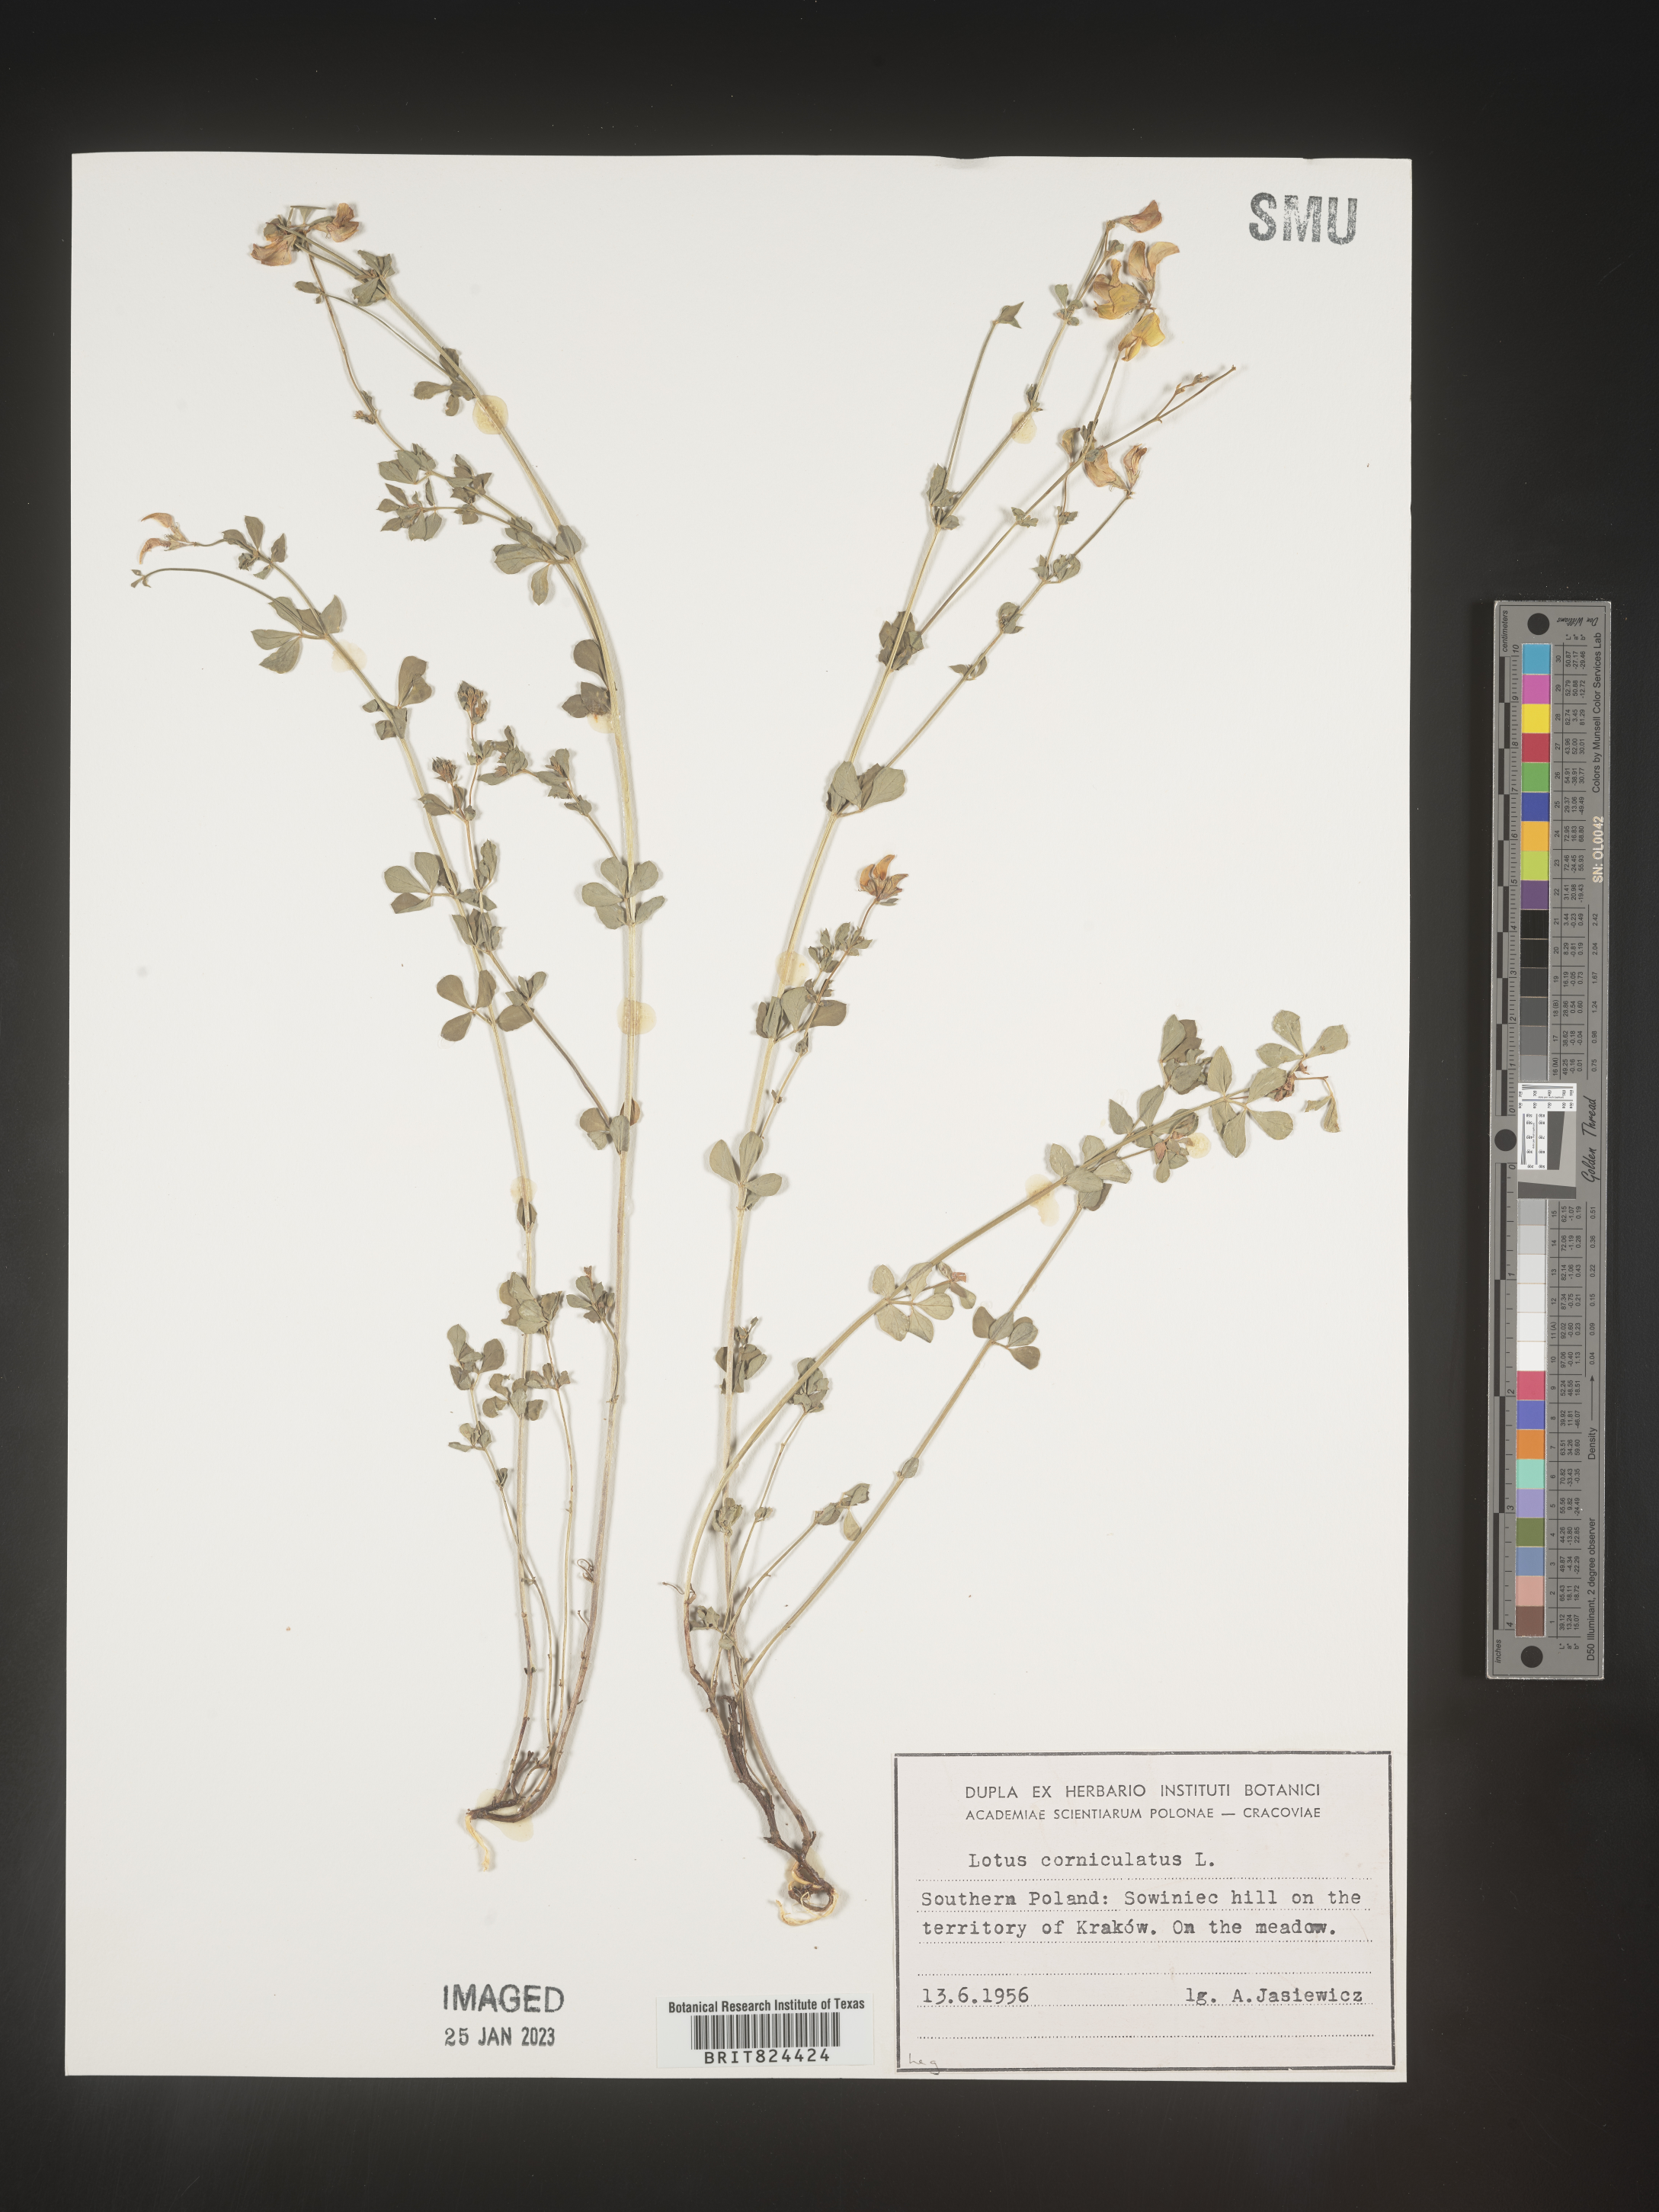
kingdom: Plantae
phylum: Tracheophyta
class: Magnoliopsida
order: Fabales
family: Fabaceae
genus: Lotus
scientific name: Lotus
